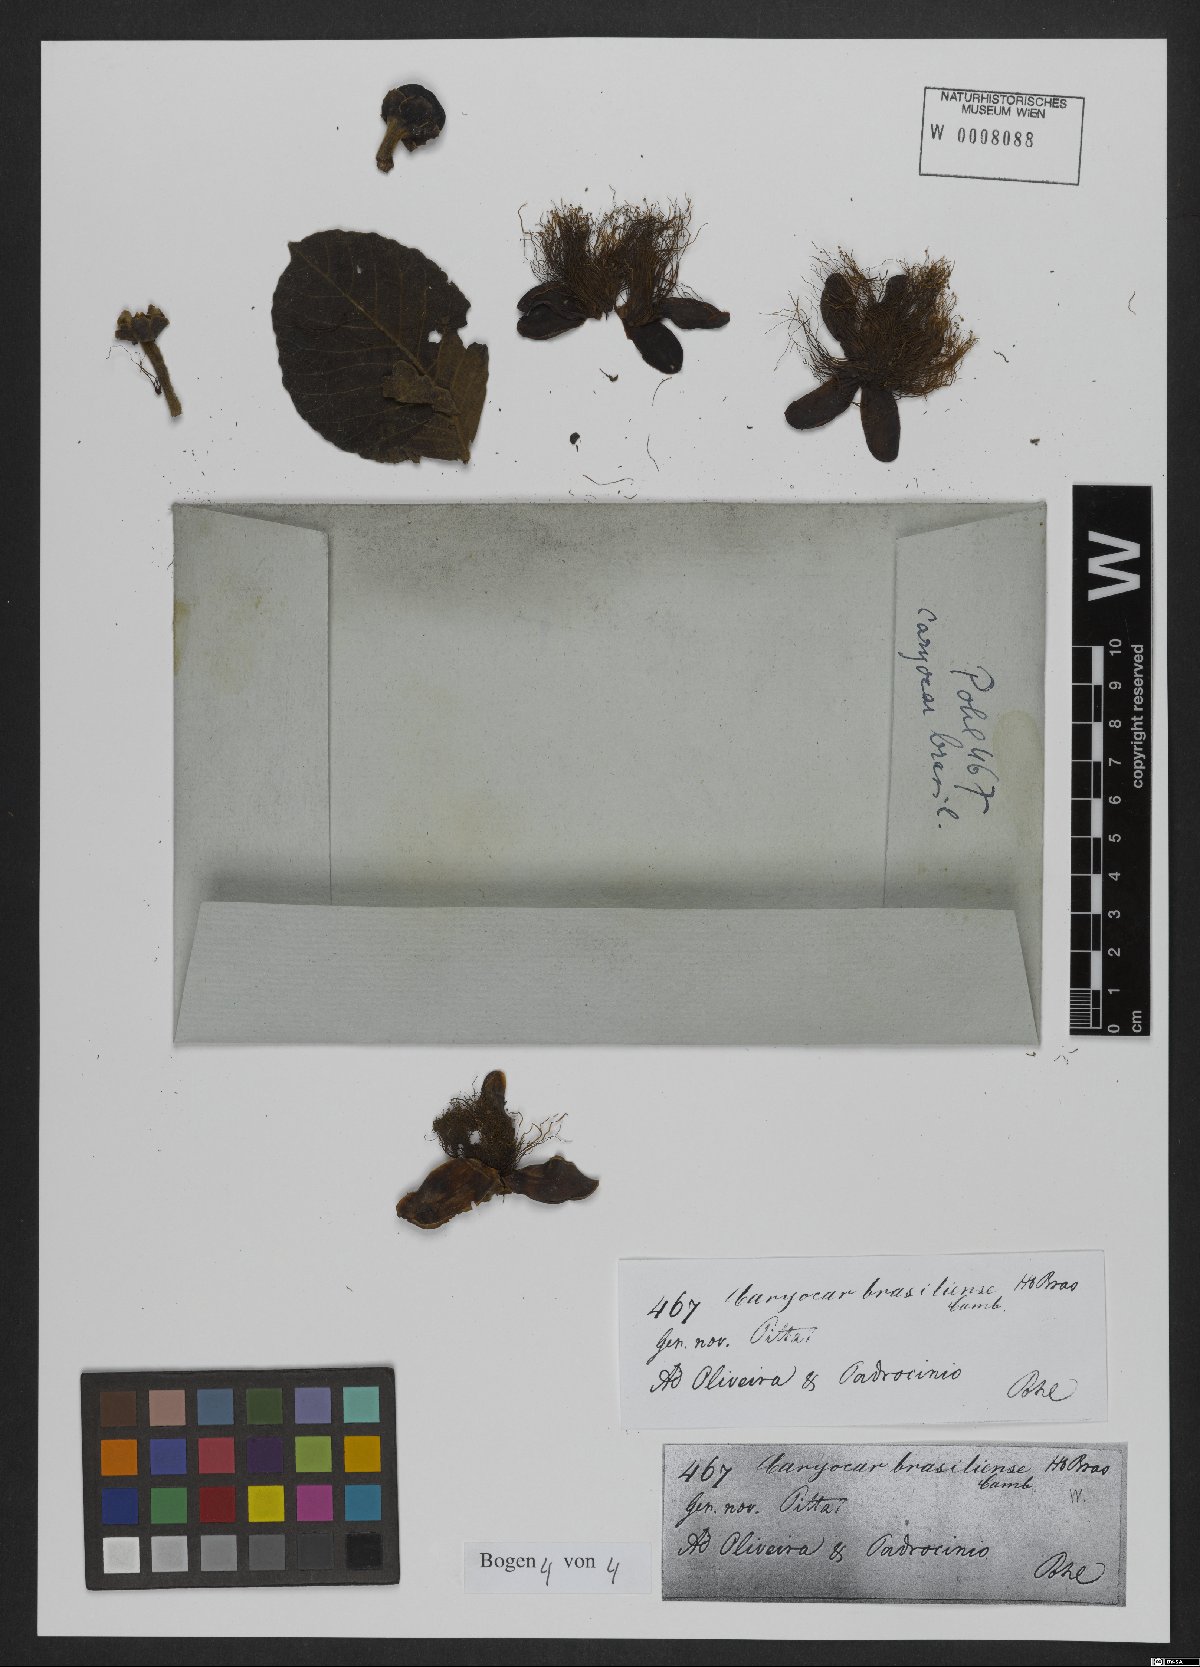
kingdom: Plantae
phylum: Tracheophyta
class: Magnoliopsida
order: Malpighiales
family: Caryocaraceae
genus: Caryocar
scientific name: Caryocar brasiliense
